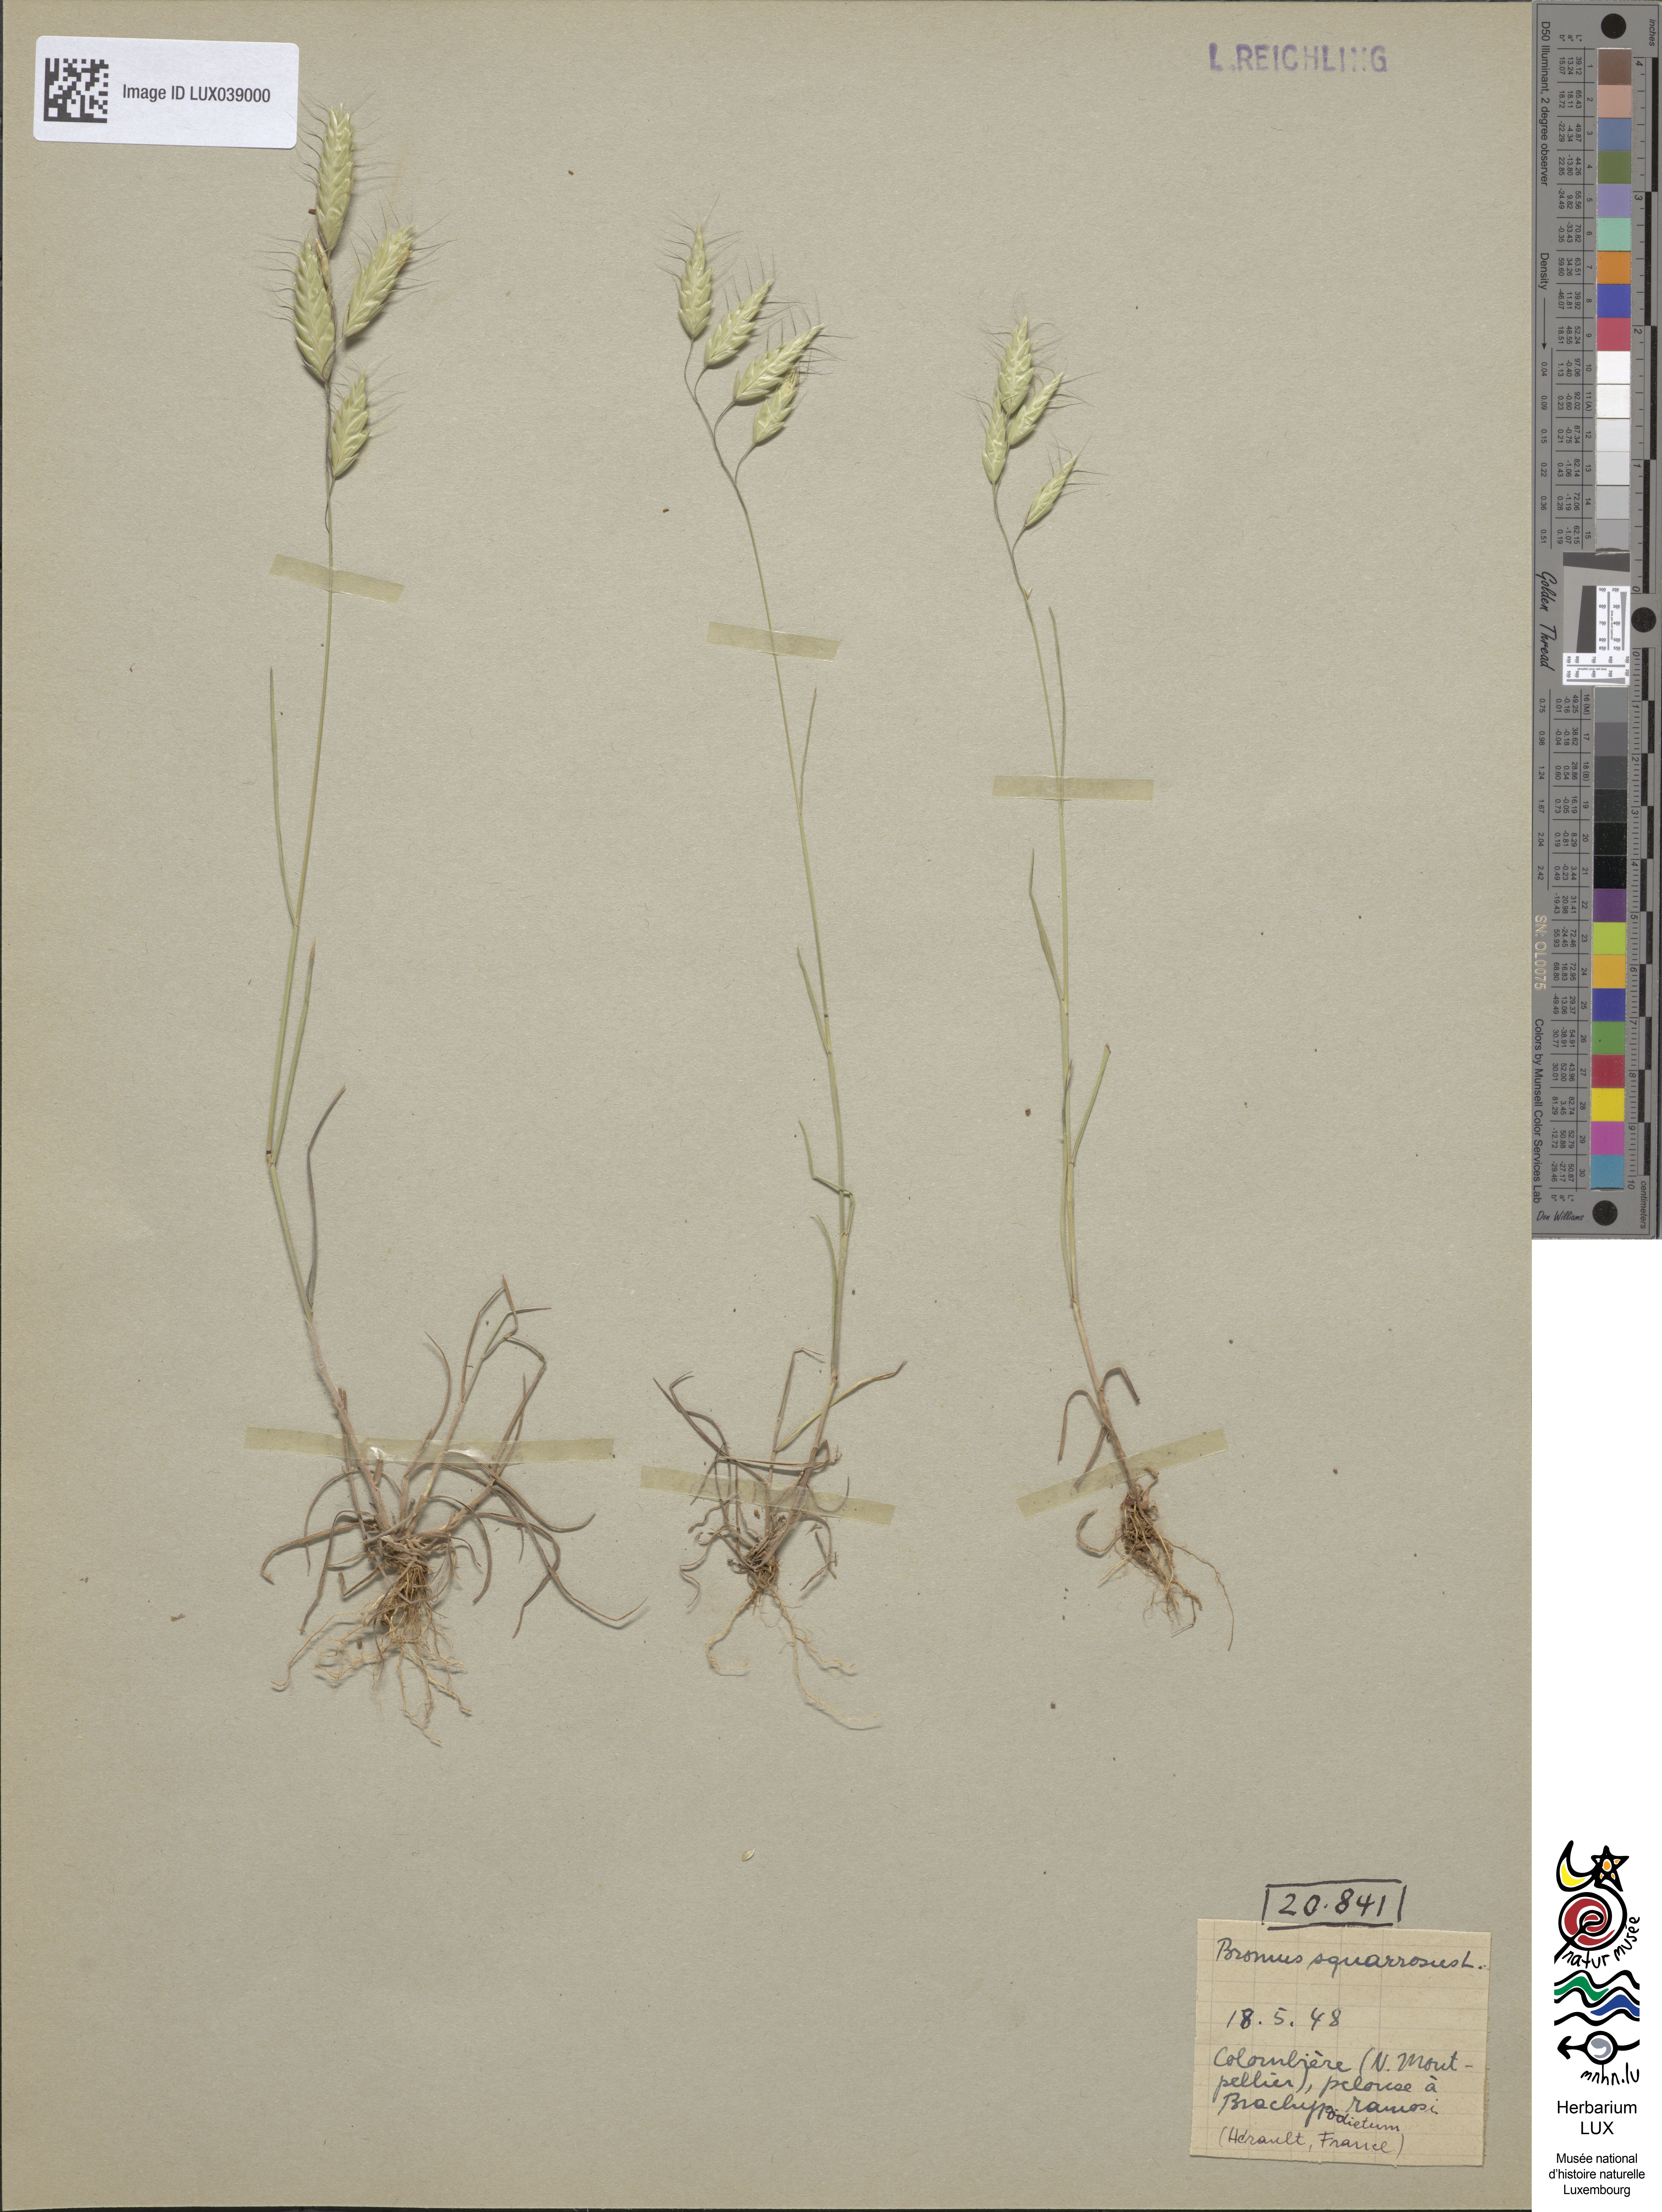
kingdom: Plantae
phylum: Tracheophyta
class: Liliopsida
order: Poales
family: Poaceae
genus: Bromus
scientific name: Bromus squarrosus
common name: Corn brome
